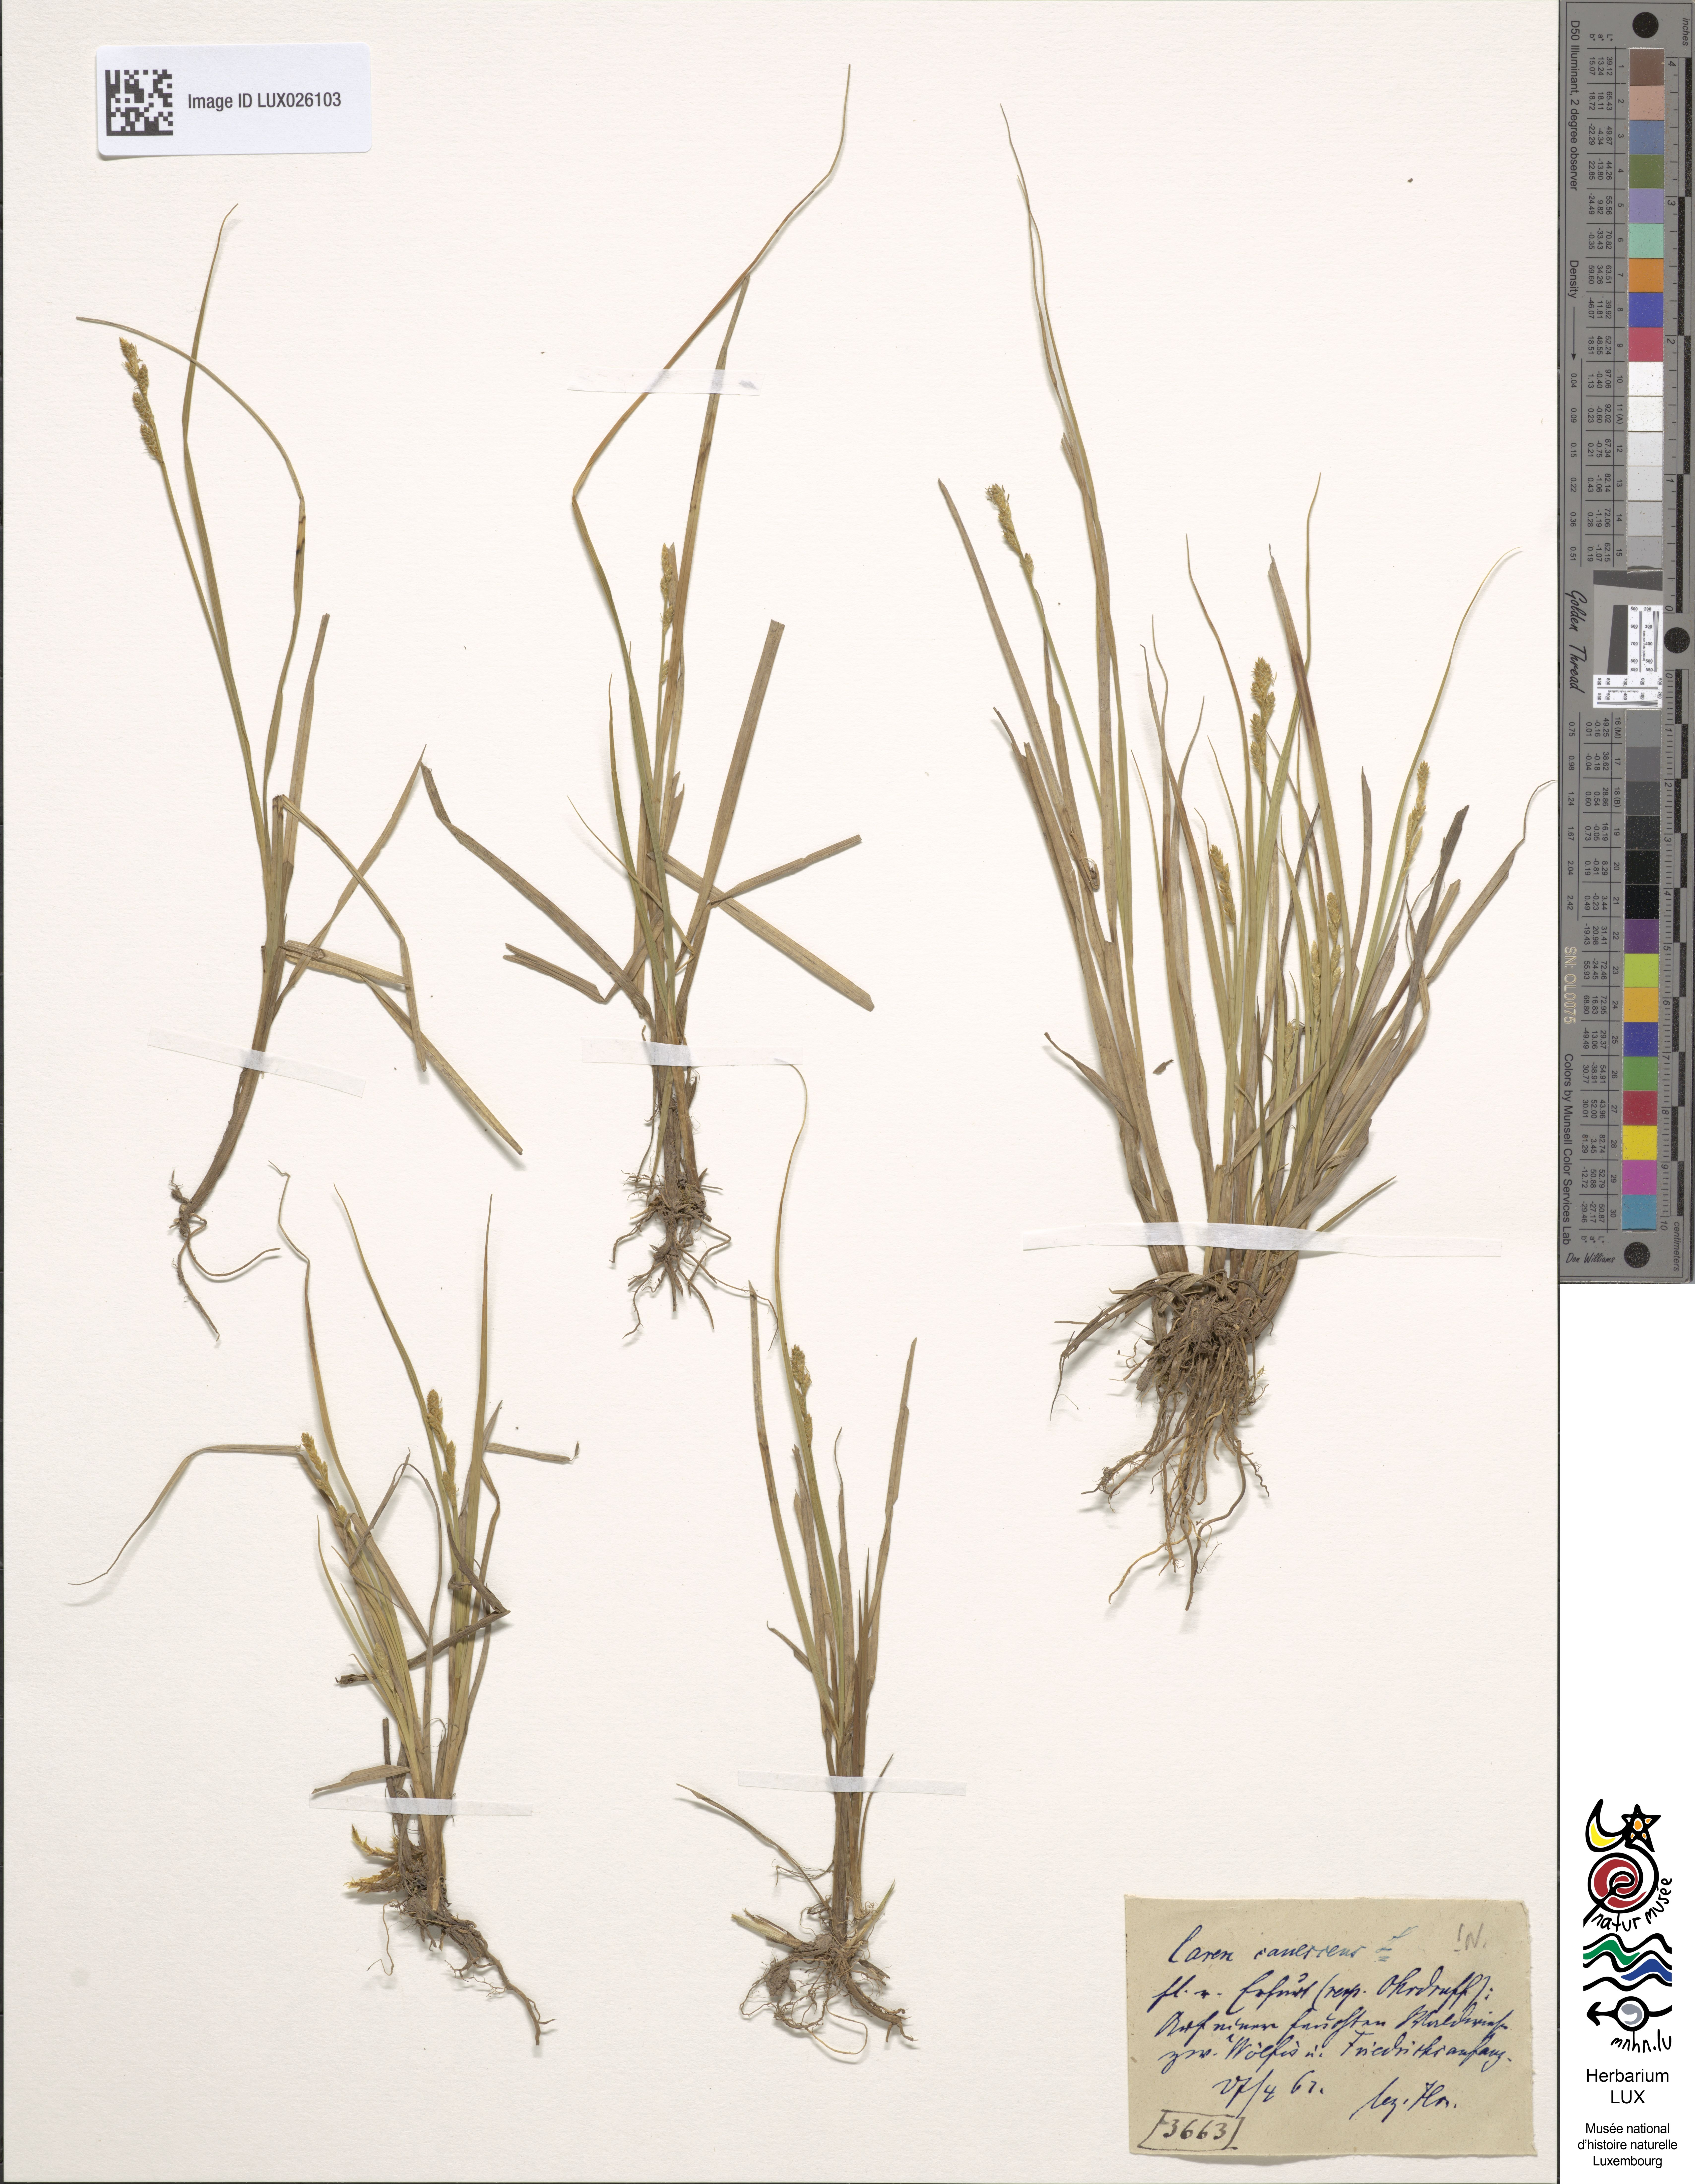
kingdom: Plantae
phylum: Tracheophyta
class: Liliopsida
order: Poales
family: Cyperaceae
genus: Carex
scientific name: Carex canescens
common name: White sedge
